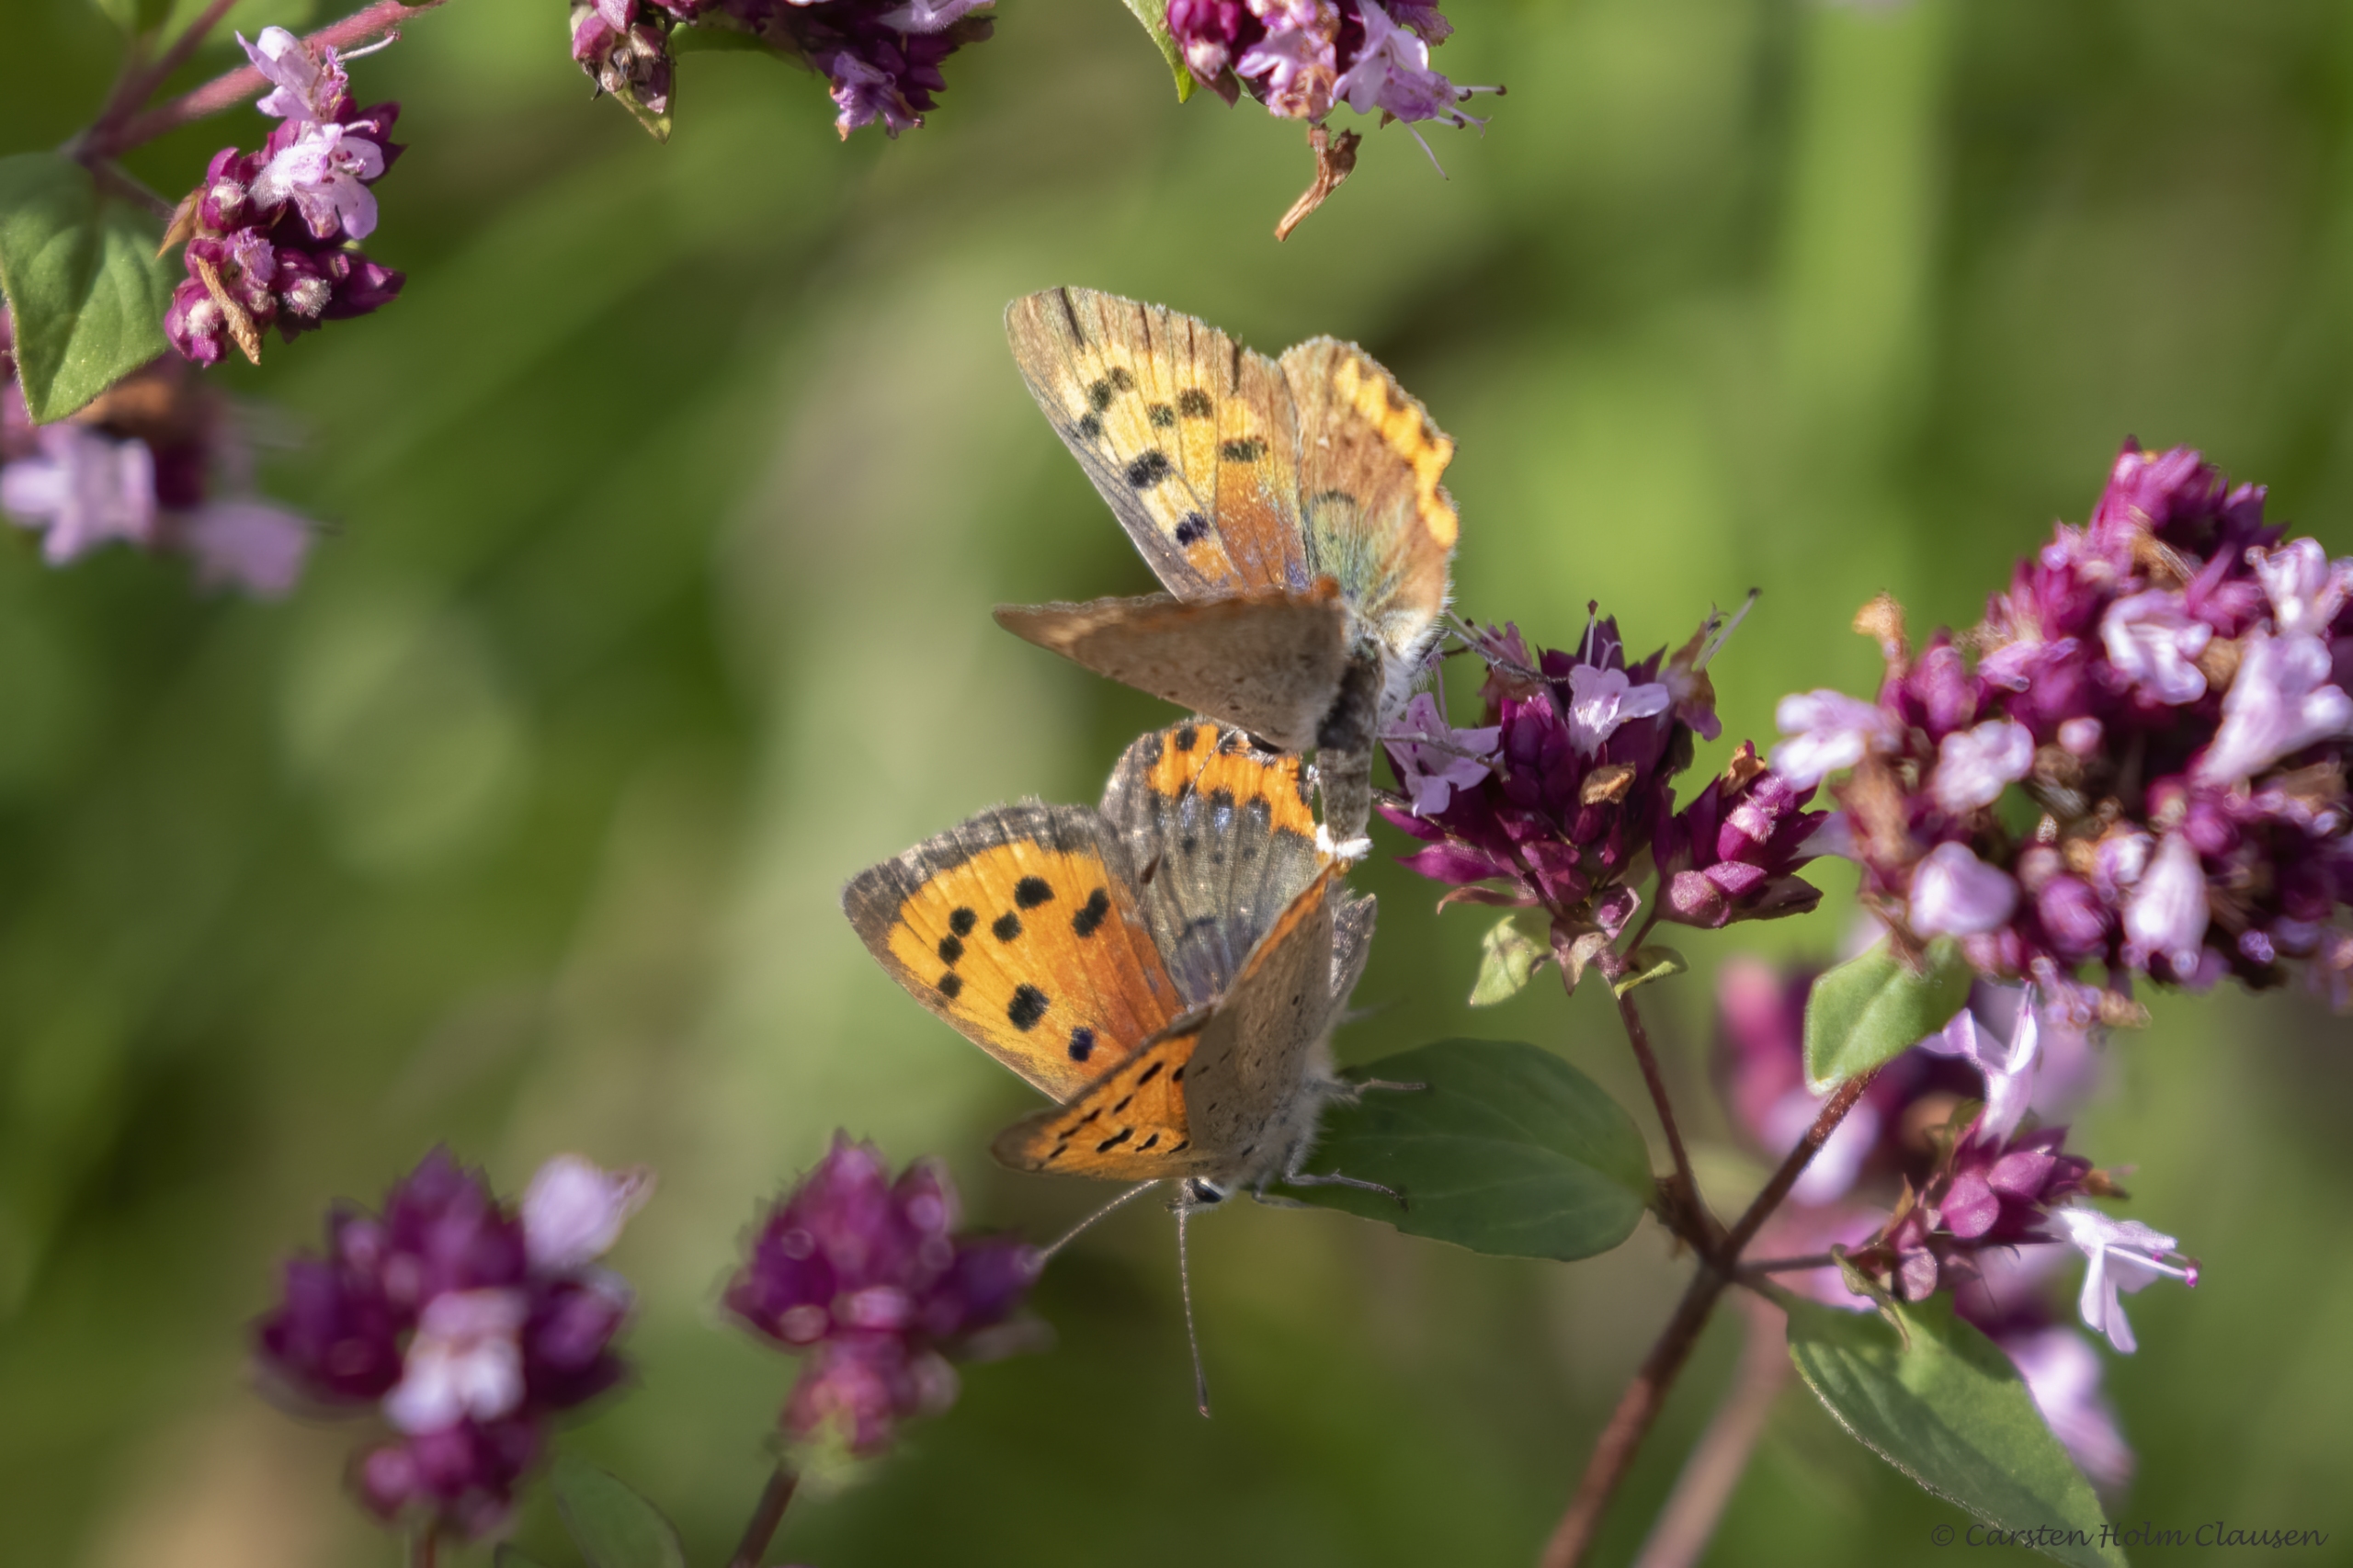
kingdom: Animalia
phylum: Arthropoda
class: Insecta
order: Lepidoptera
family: Lycaenidae
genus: Lycaena
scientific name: Lycaena phlaeas
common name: Lille ildfugl
